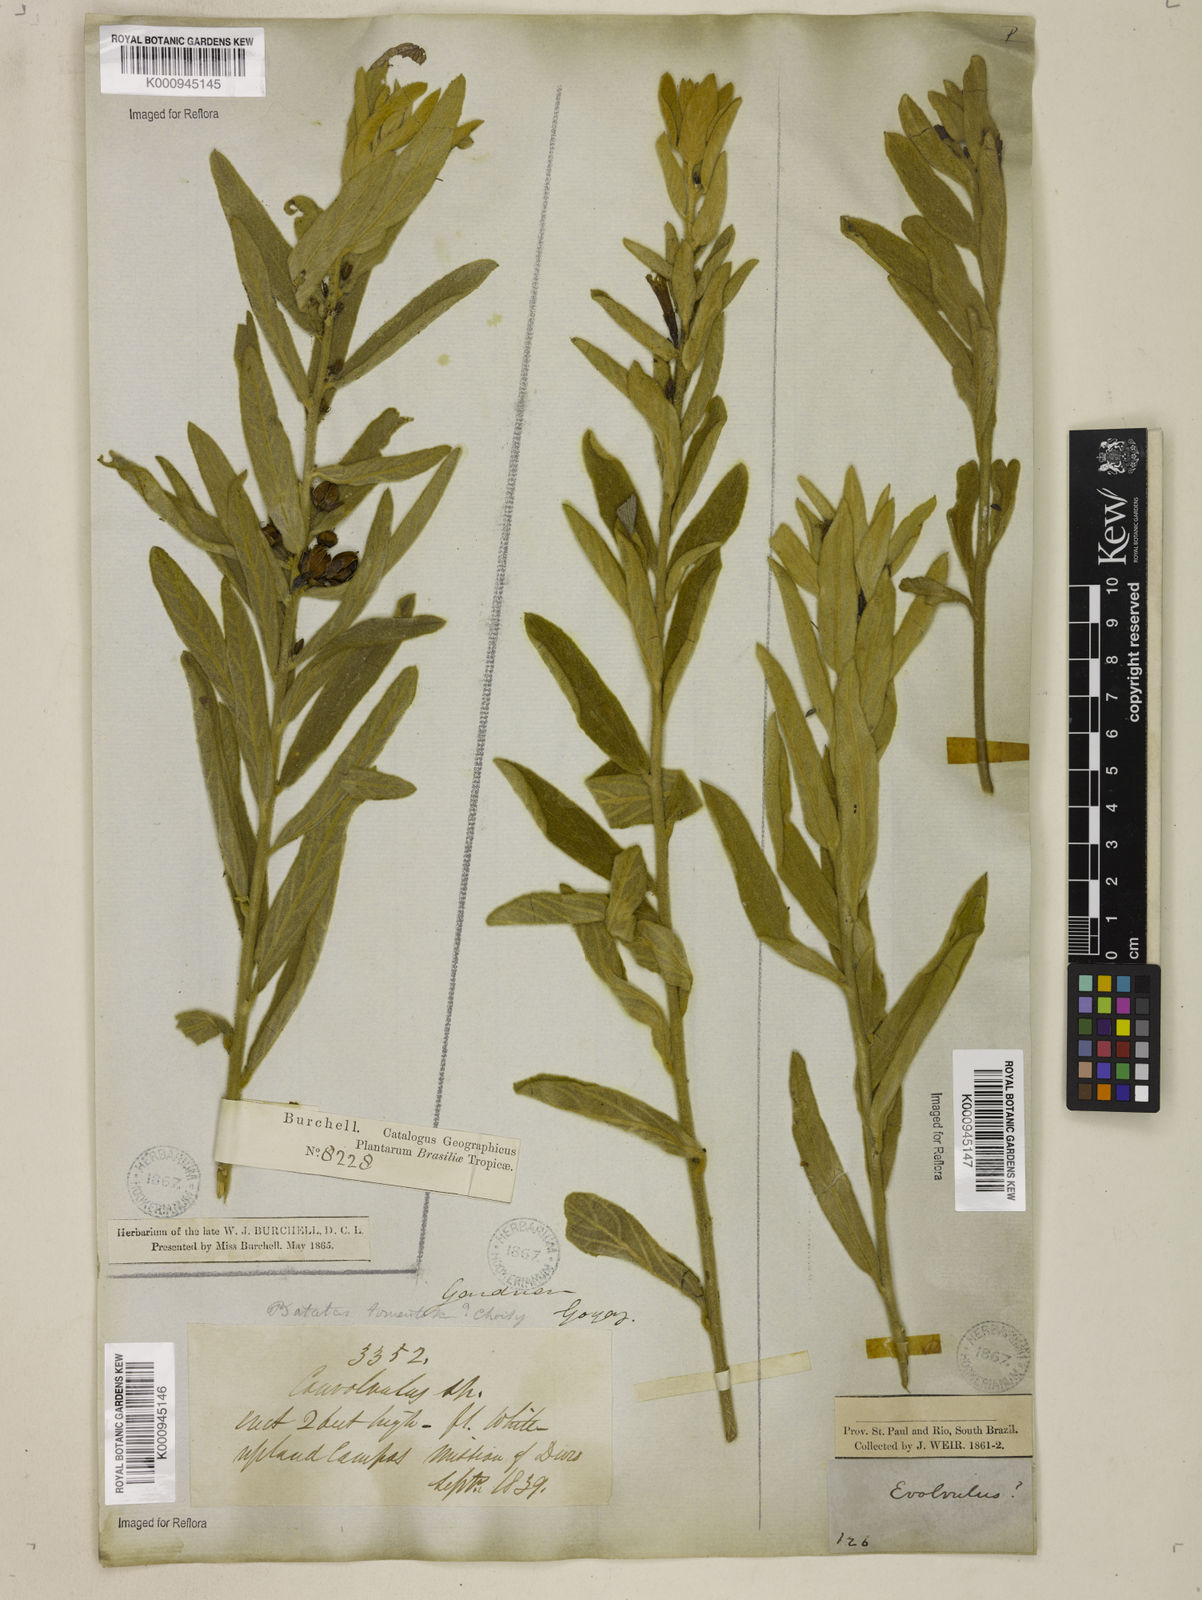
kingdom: Plantae
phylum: Tracheophyta
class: Magnoliopsida
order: Solanales
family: Convolvulaceae
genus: Distimake
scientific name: Distimake tomentosus
